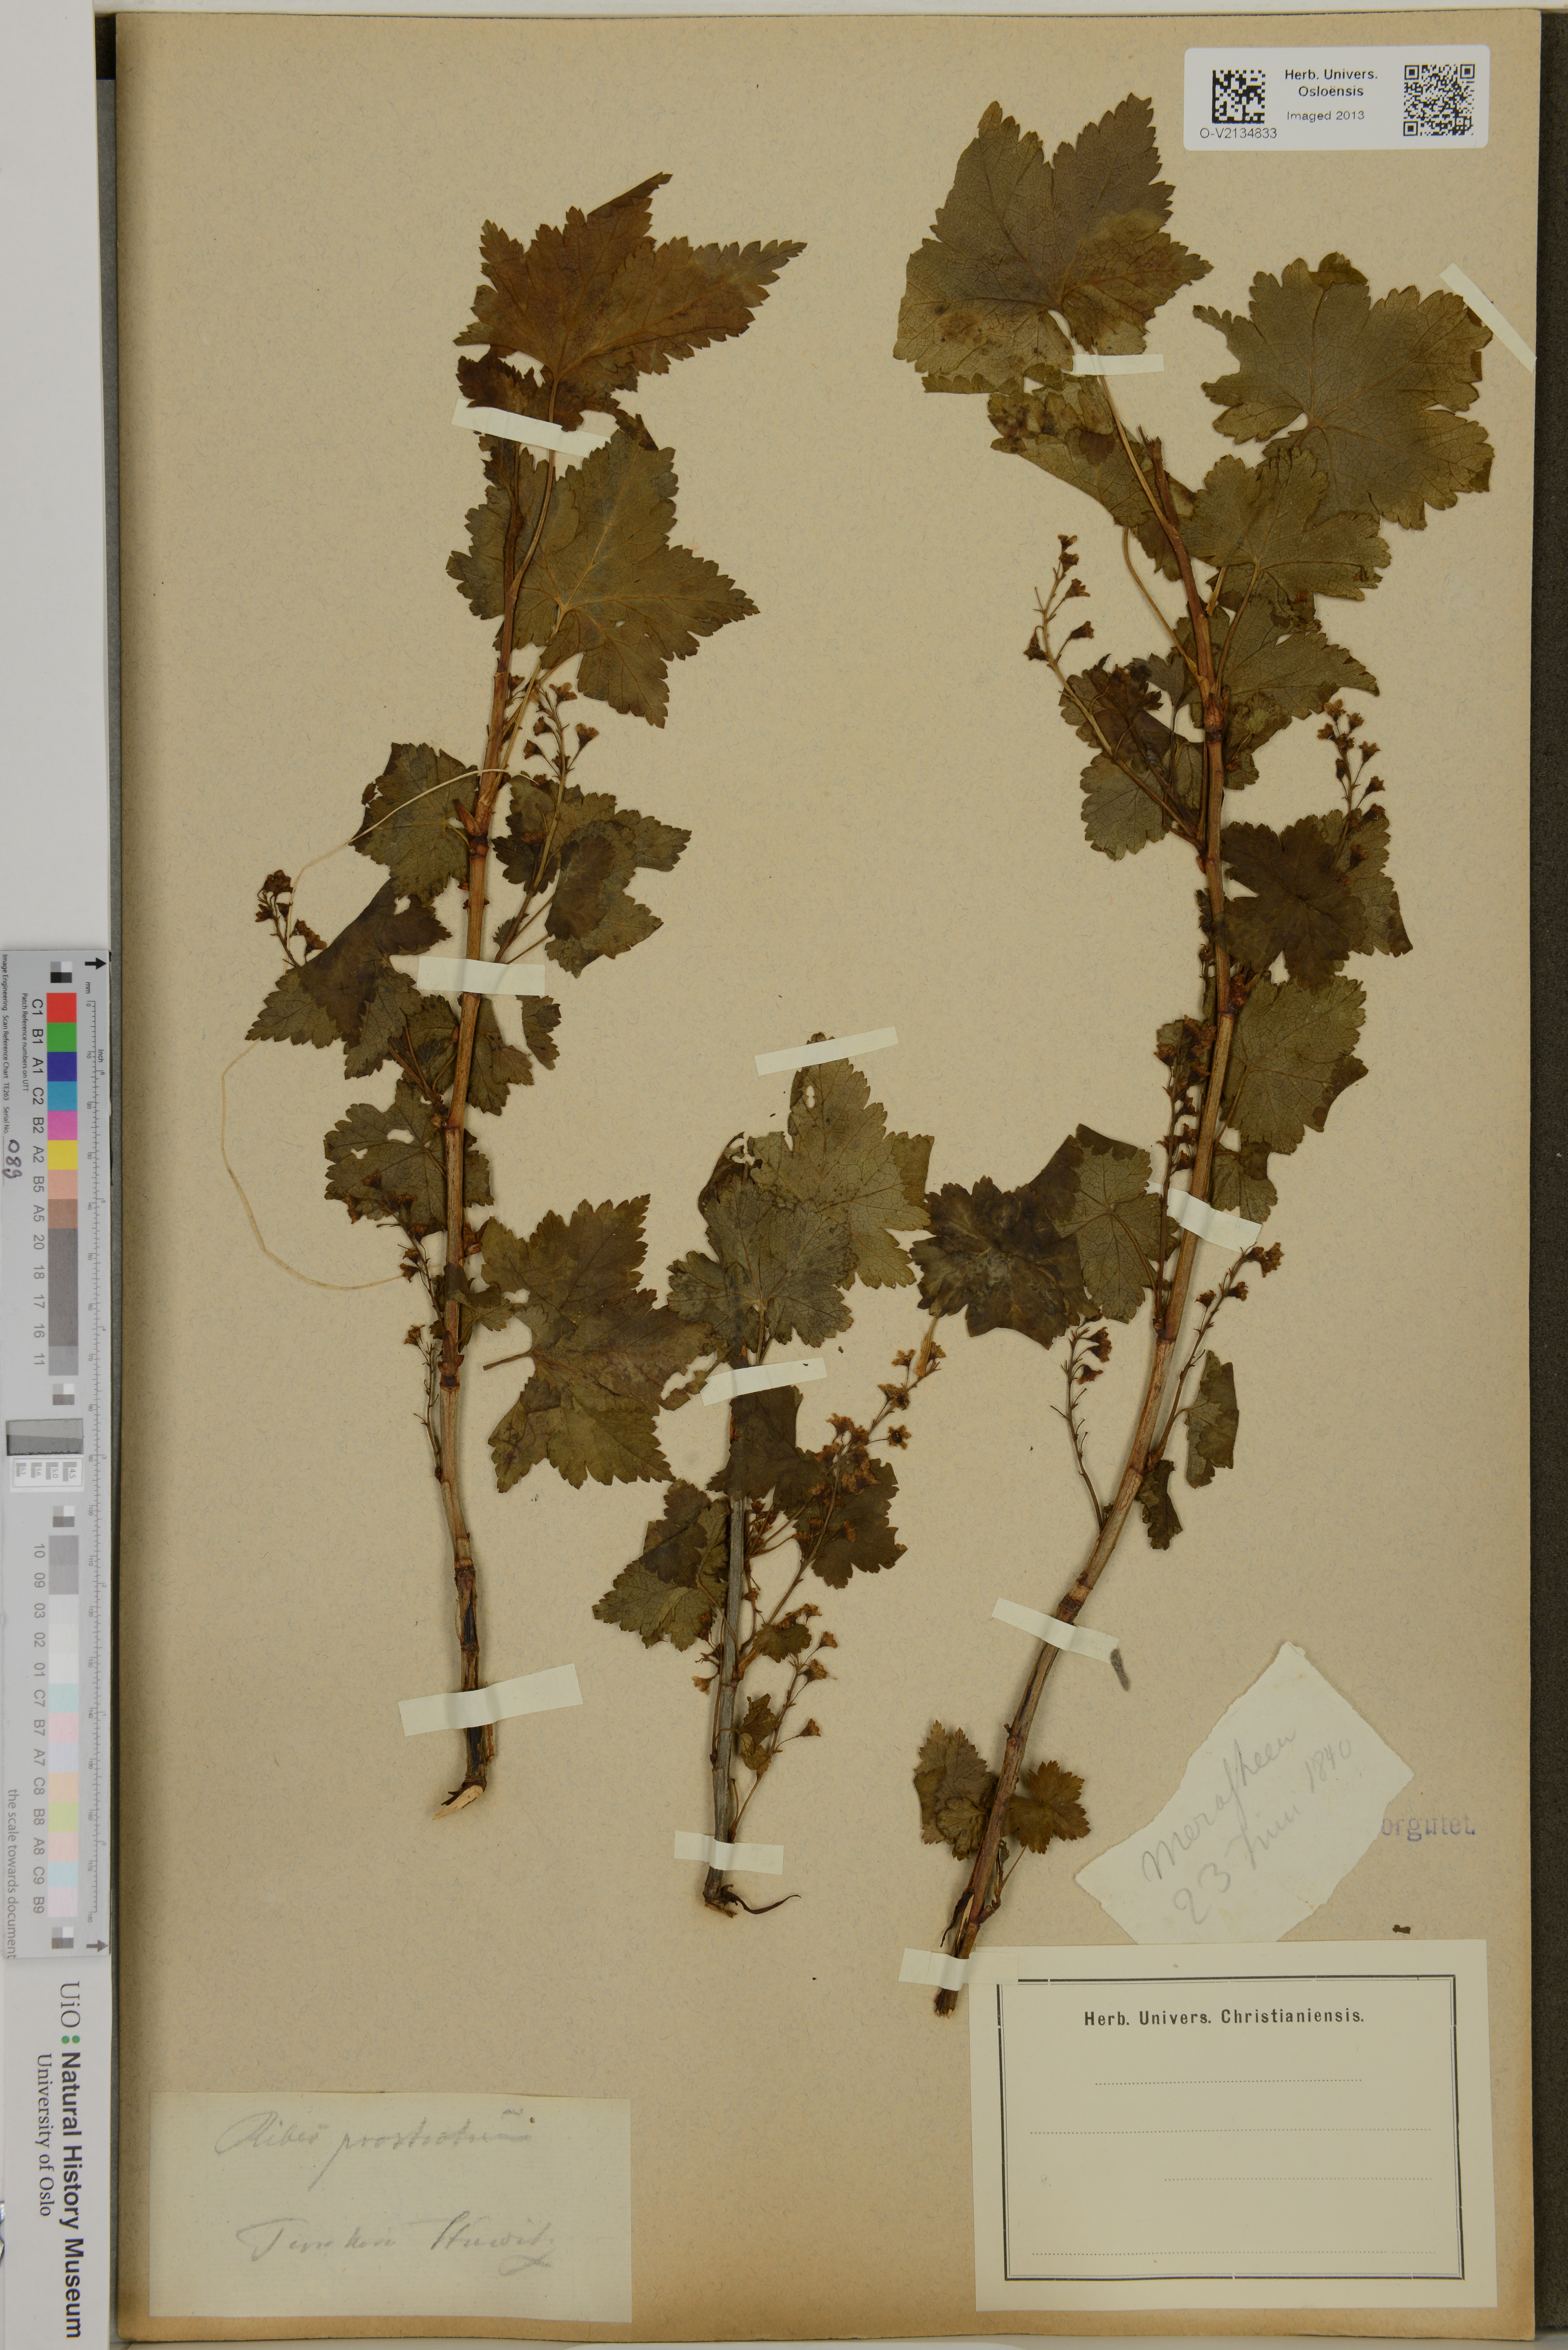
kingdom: Plantae
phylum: Tracheophyta
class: Magnoliopsida
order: Saxifragales
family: Grossulariaceae
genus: Ribes
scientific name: Ribes glandulosum
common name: Skunk currant
